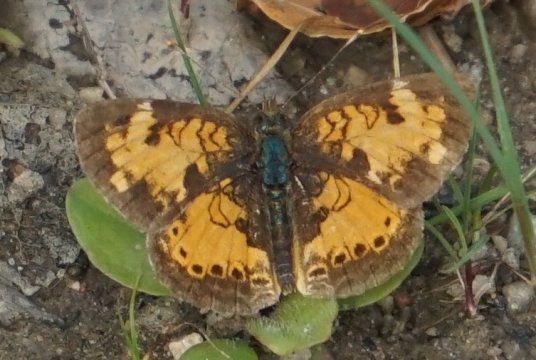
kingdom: Animalia
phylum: Arthropoda
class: Insecta
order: Lepidoptera
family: Nymphalidae
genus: Phyciodes
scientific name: Phyciodes tharos
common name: Northern Crescent
